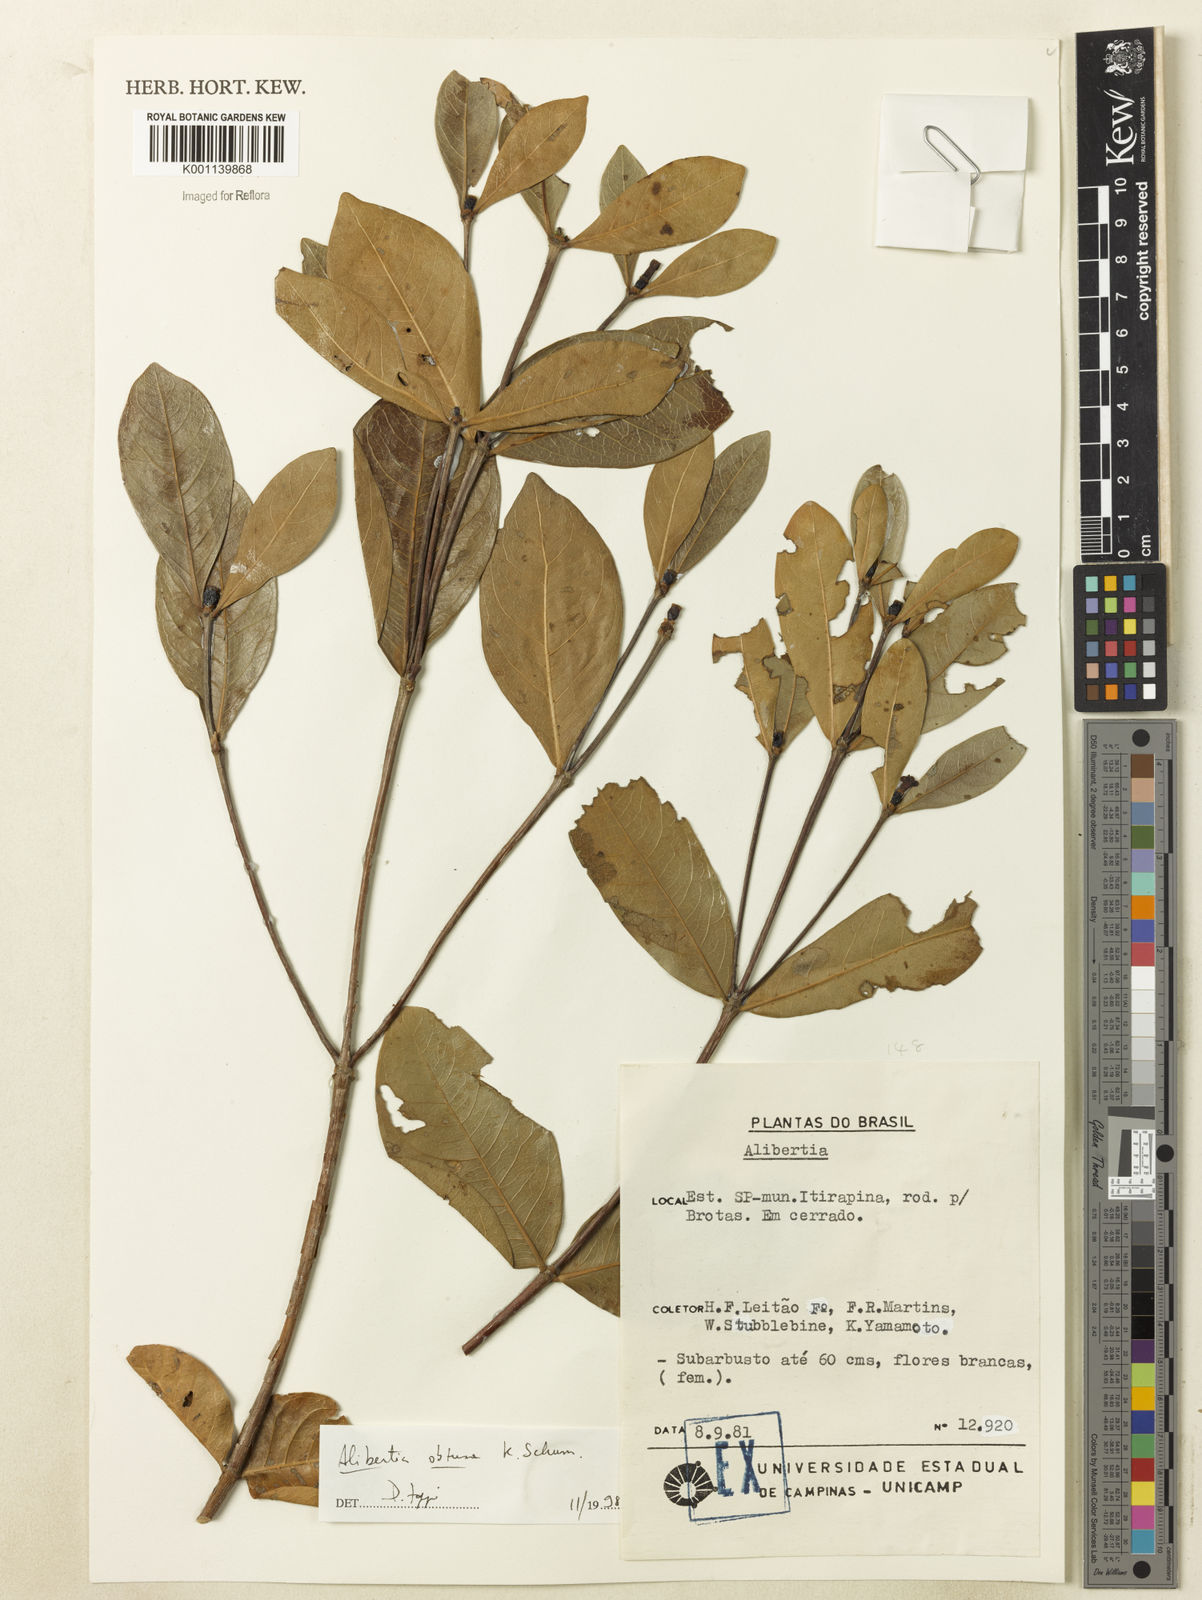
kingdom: Plantae
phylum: Tracheophyta
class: Magnoliopsida
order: Gentianales
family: Rubiaceae
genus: Cordiera
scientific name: Cordiera obtusa
